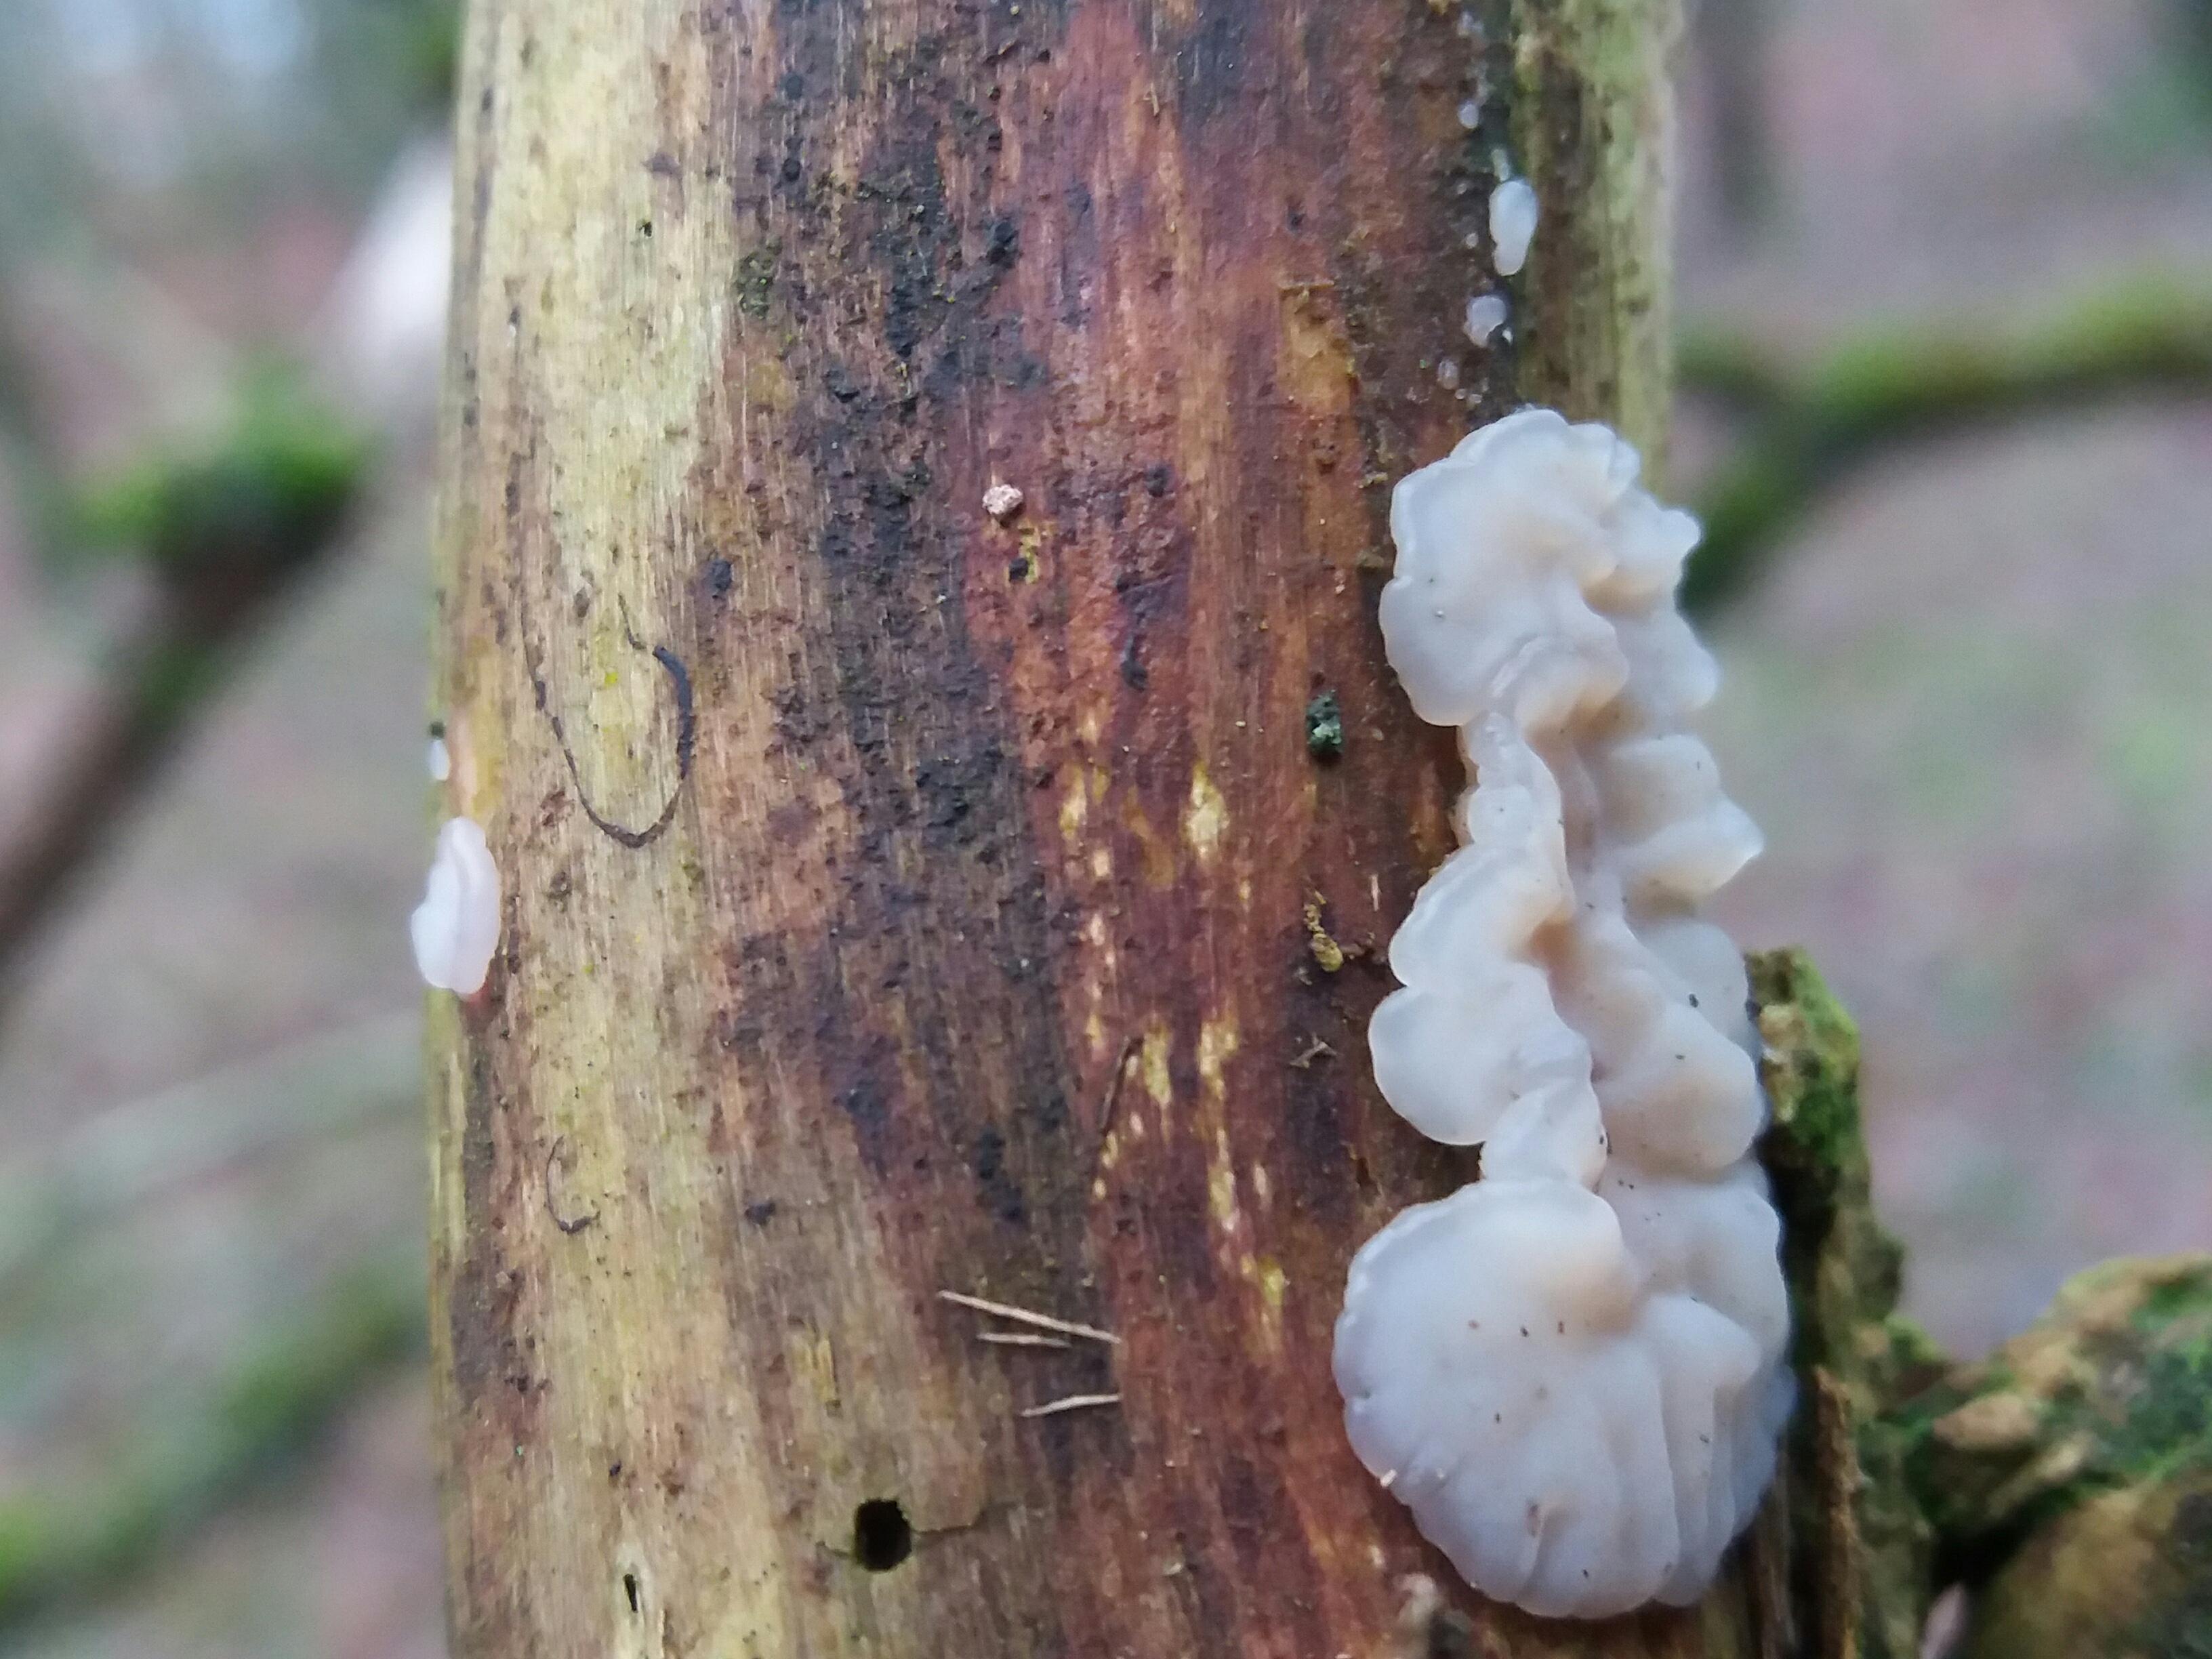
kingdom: Fungi
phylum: Basidiomycota
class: Agaricomycetes
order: Auriculariales
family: Auriculariaceae
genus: Exidia
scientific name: Exidia thuretiana
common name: hvidlig bævretop
